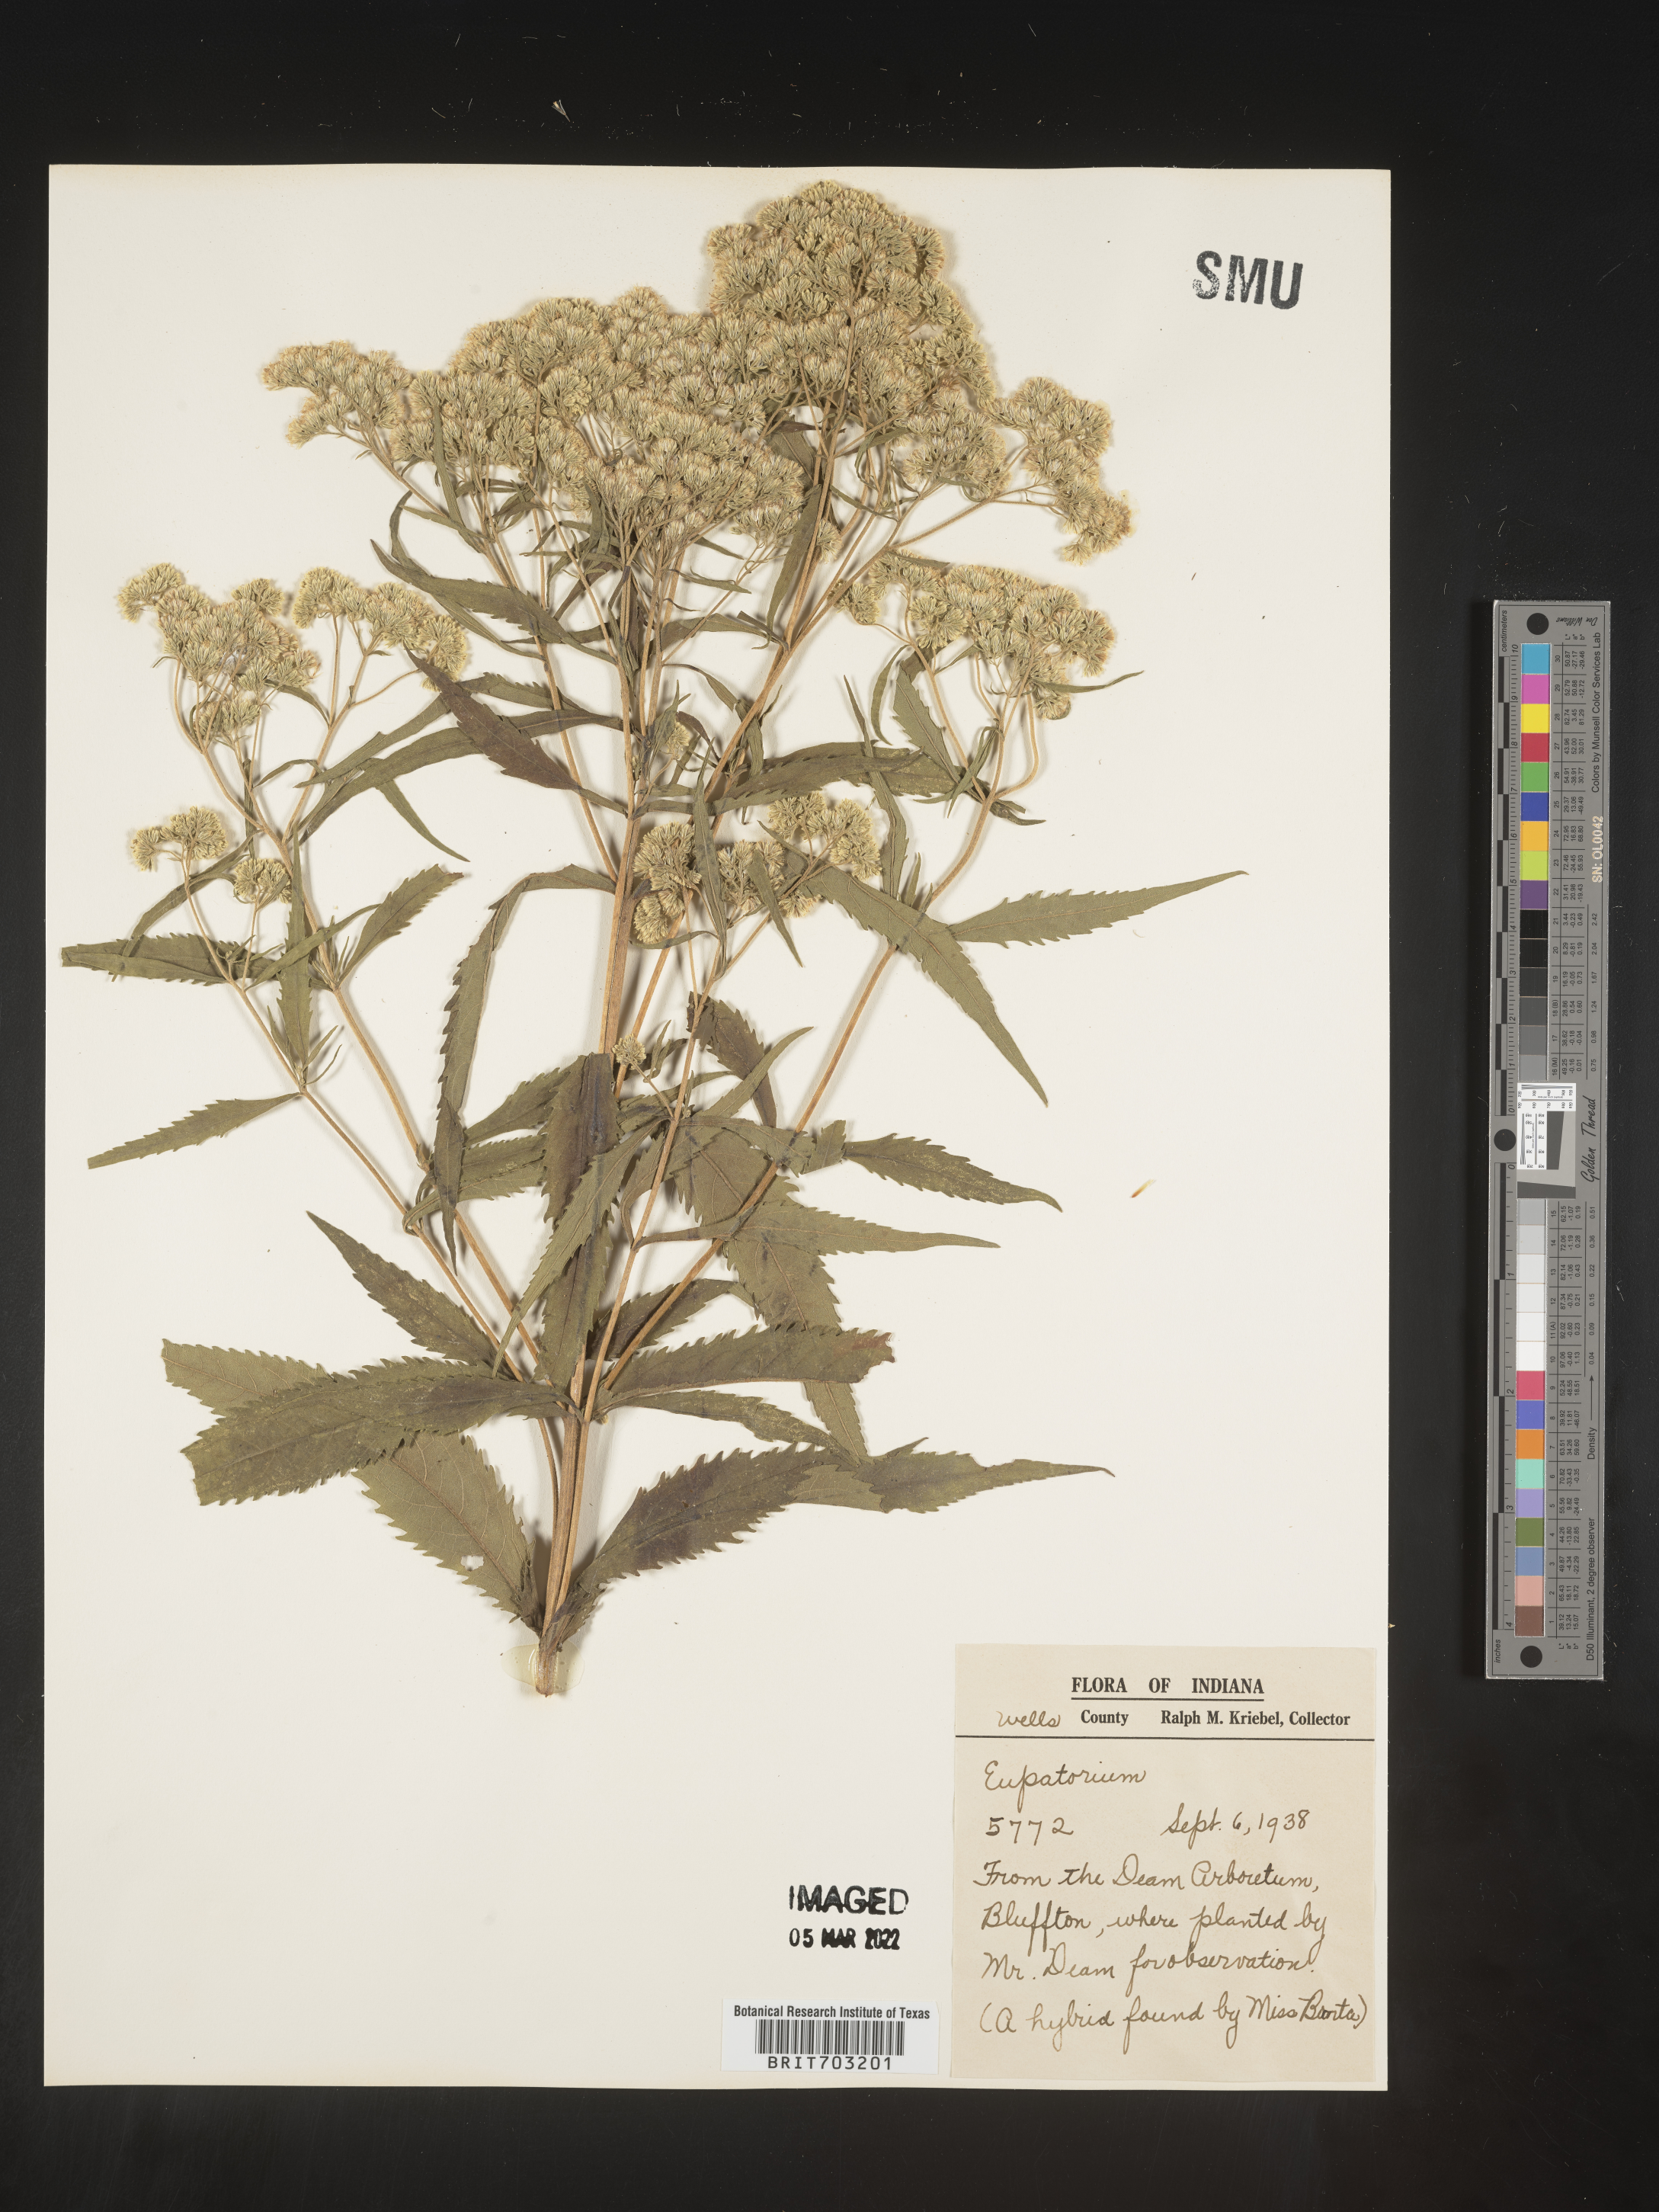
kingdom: Plantae
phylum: Tracheophyta
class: Magnoliopsida
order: Asterales
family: Asteraceae
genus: Eupatorium
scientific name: Eupatorium
